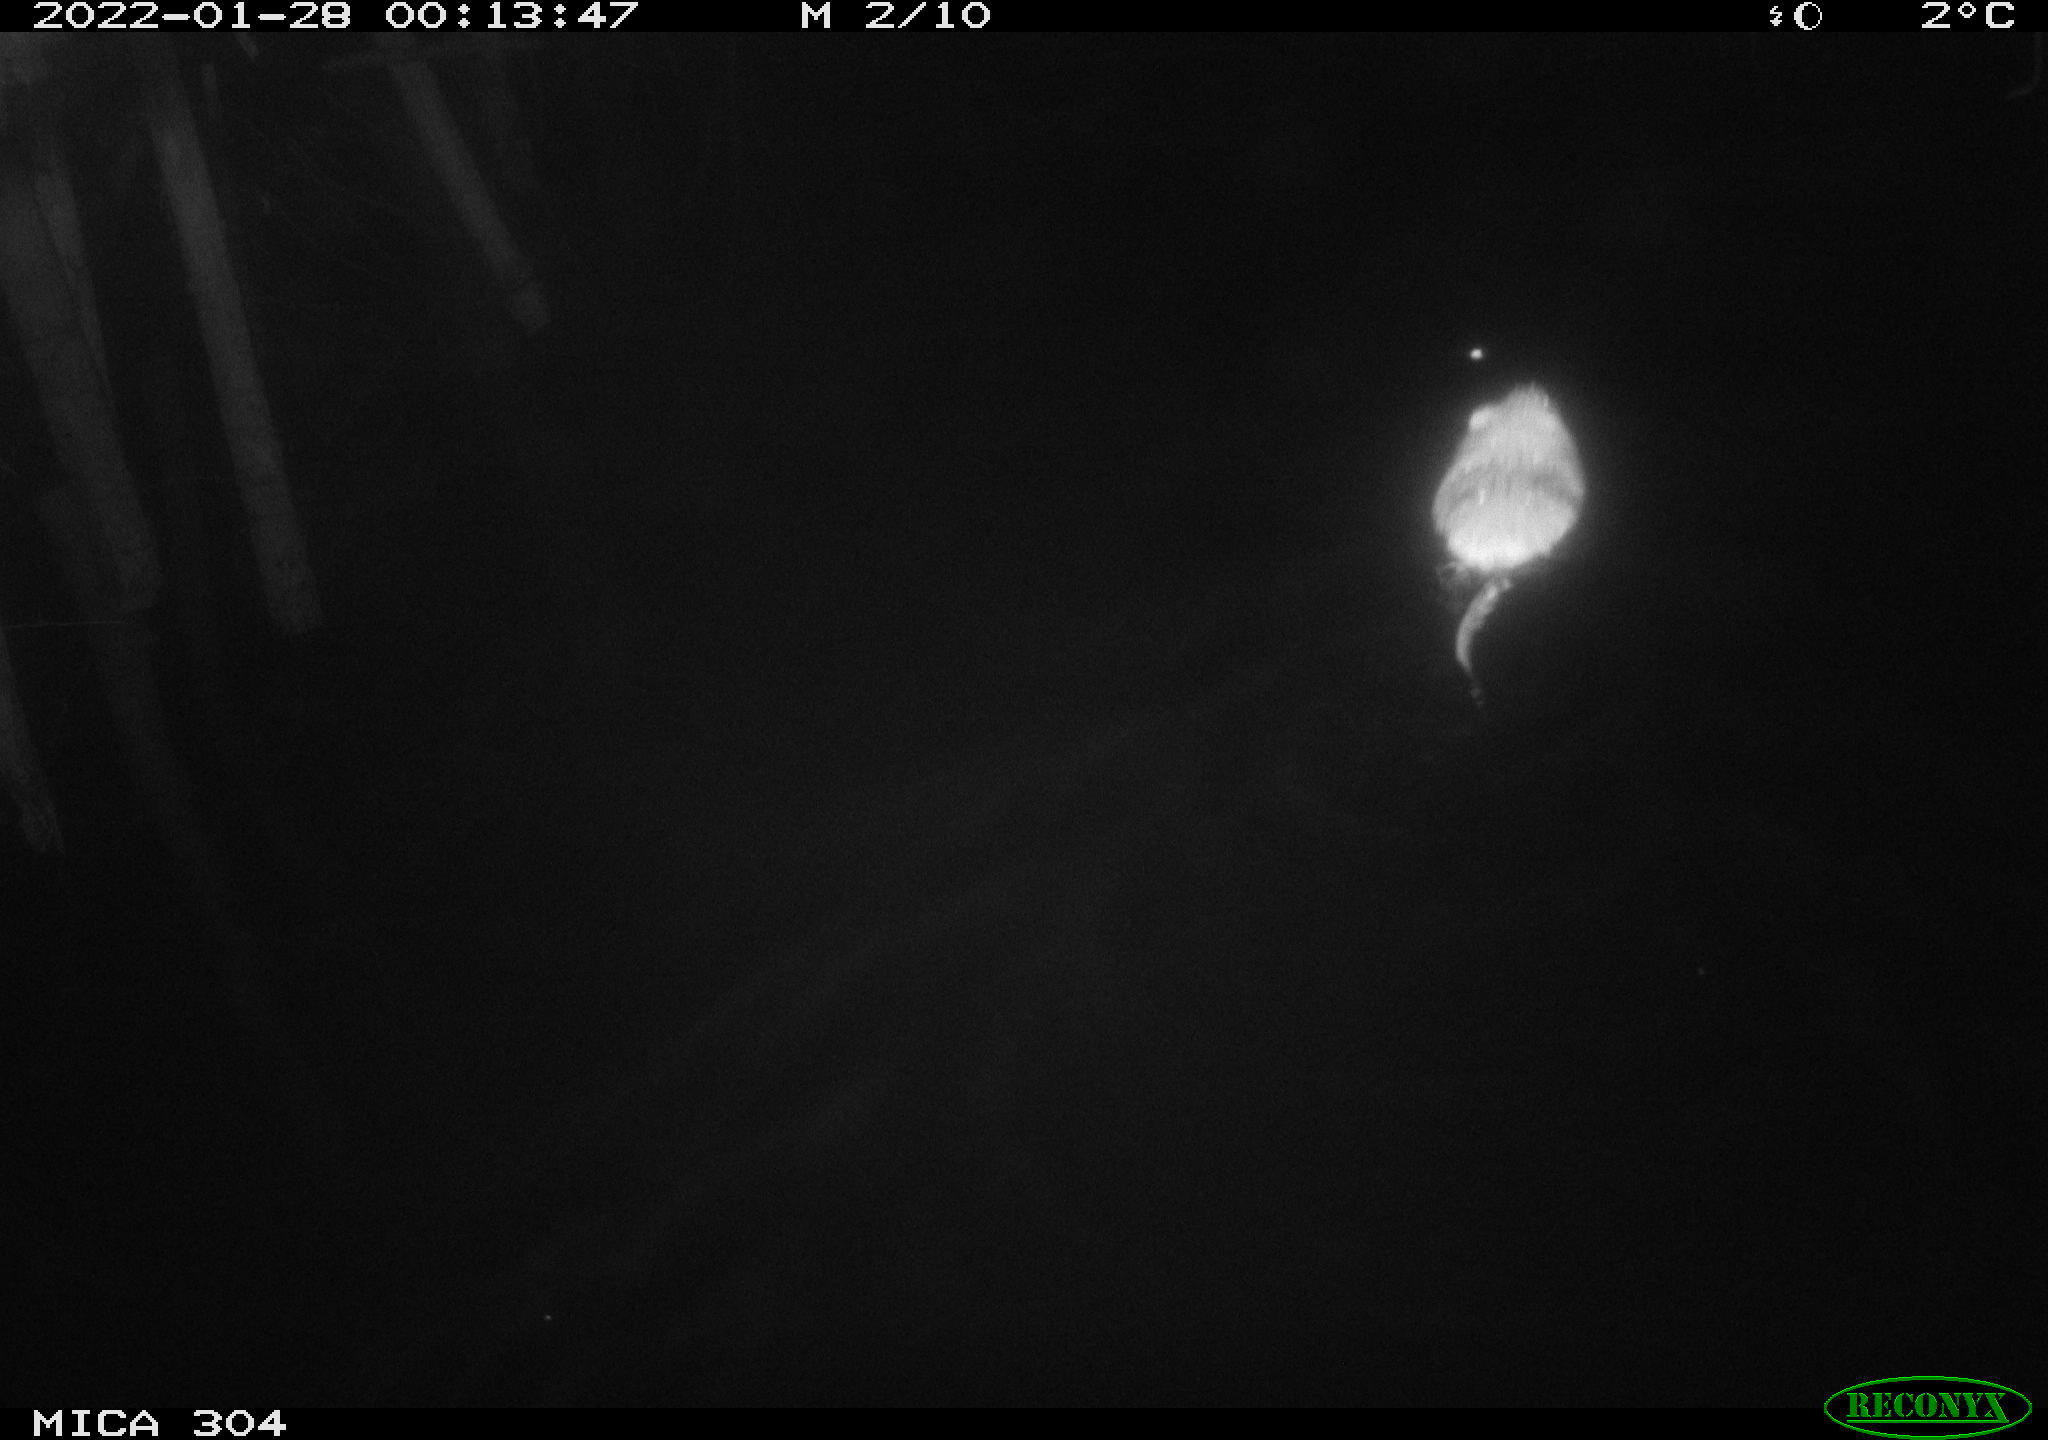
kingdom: Animalia
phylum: Chordata
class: Mammalia
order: Rodentia
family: Cricetidae
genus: Ondatra
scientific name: Ondatra zibethicus
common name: Muskrat
